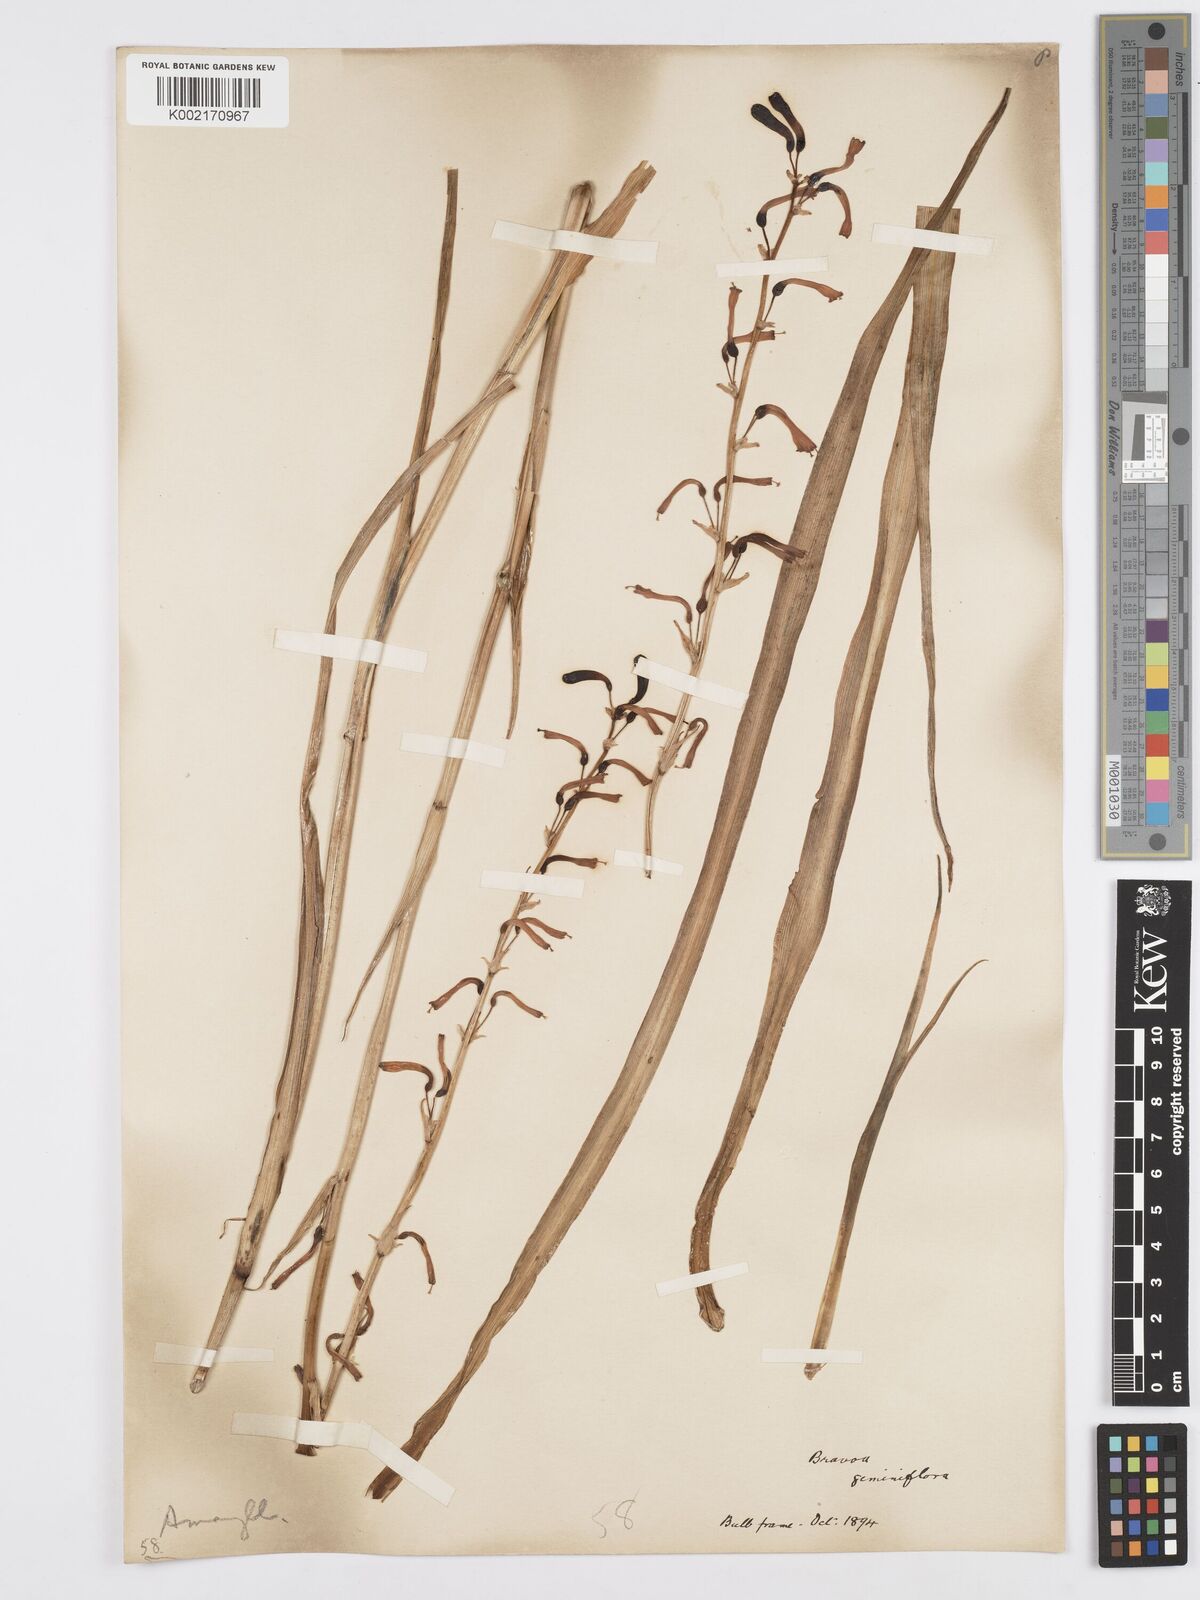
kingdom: Plantae
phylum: Tracheophyta
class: Liliopsida
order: Asparagales
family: Asparagaceae
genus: Agave
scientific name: Agave coetocapnia
